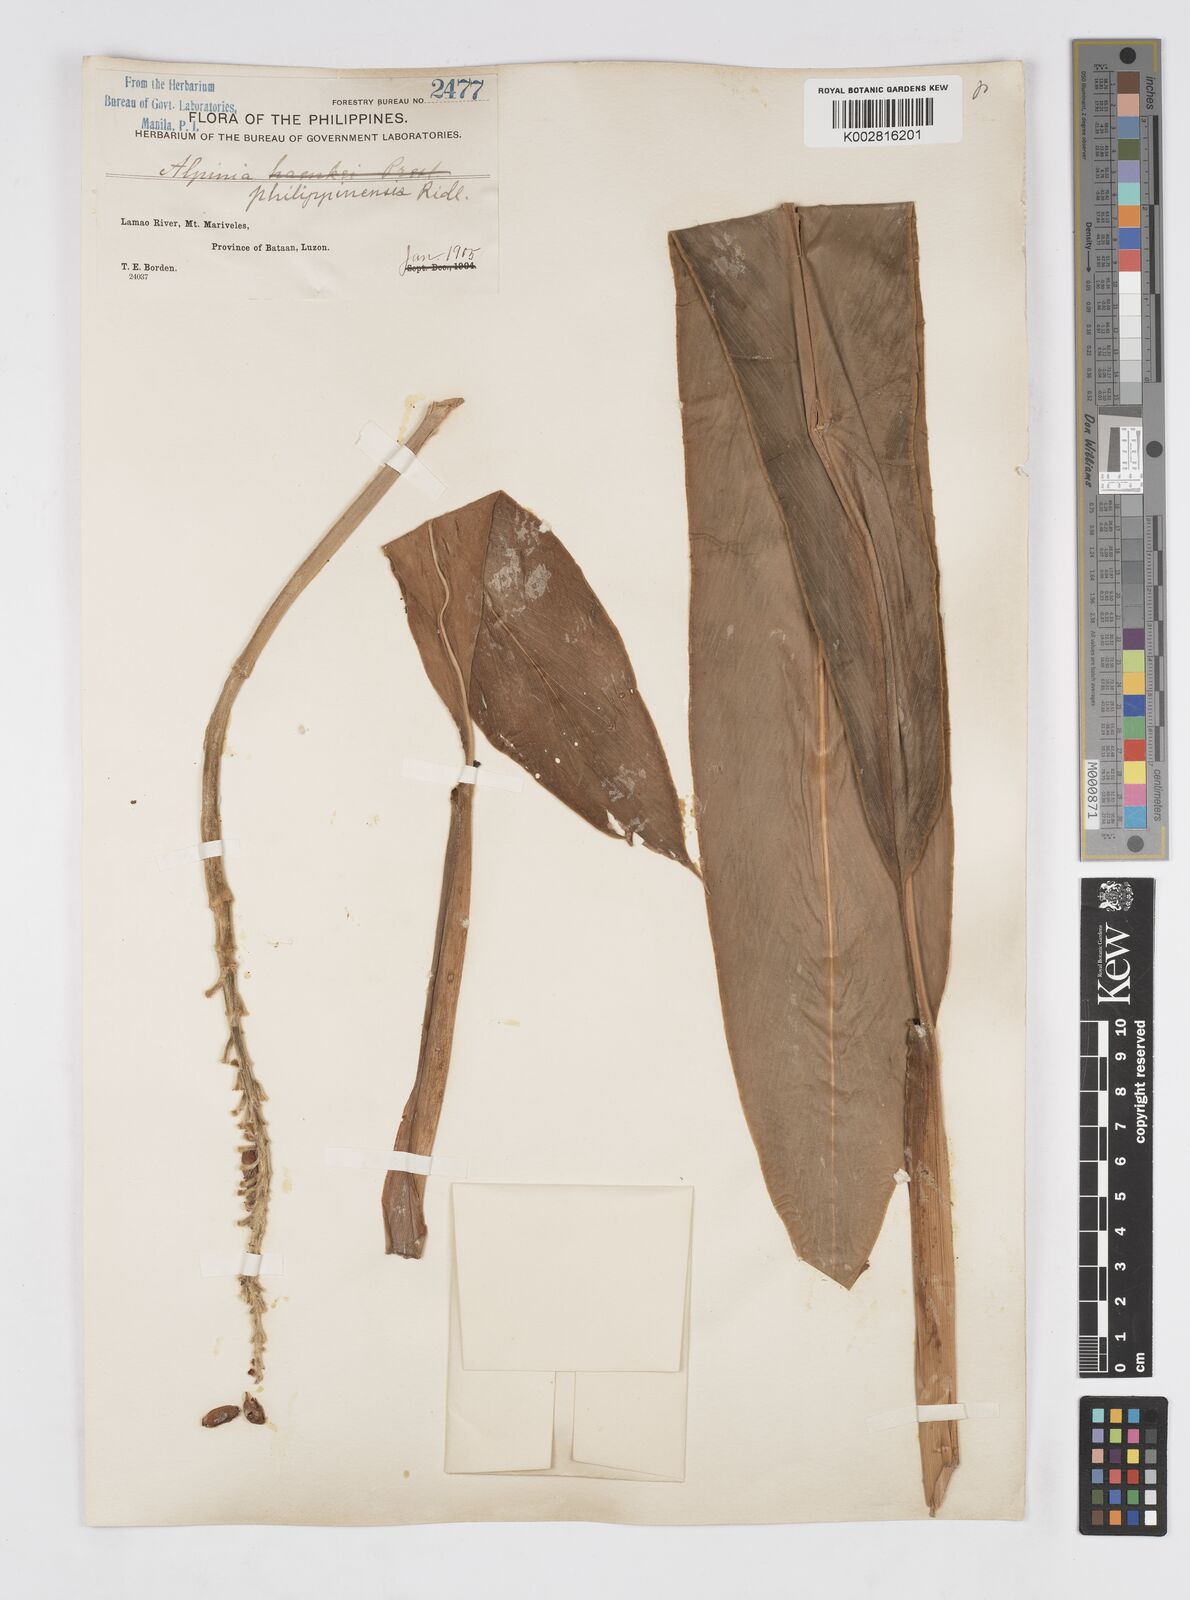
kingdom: Plantae
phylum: Tracheophyta
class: Liliopsida
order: Zingiberales
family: Zingiberaceae
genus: Alpinia
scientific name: Alpinia haenkei
